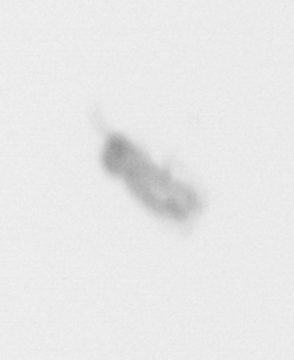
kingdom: Animalia
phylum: Arthropoda
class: Copepoda
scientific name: Copepoda
